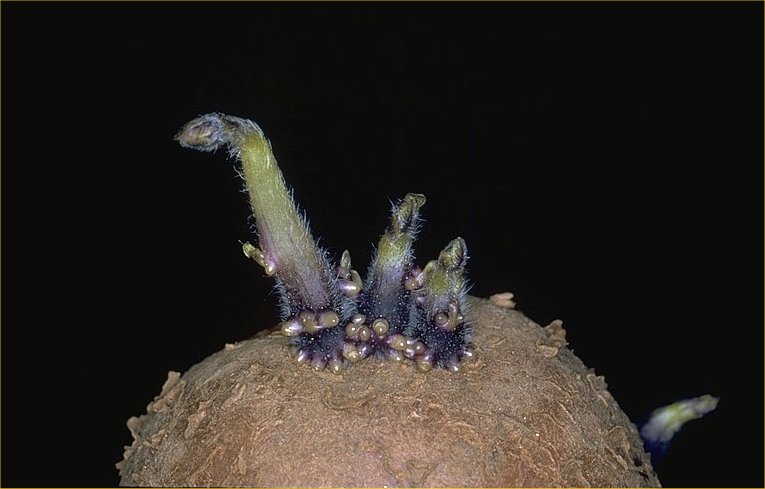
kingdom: Plantae
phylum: Tracheophyta
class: Magnoliopsida
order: Solanales
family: Solanaceae
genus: Solanum
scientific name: Solanum tuberosum
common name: Potato
